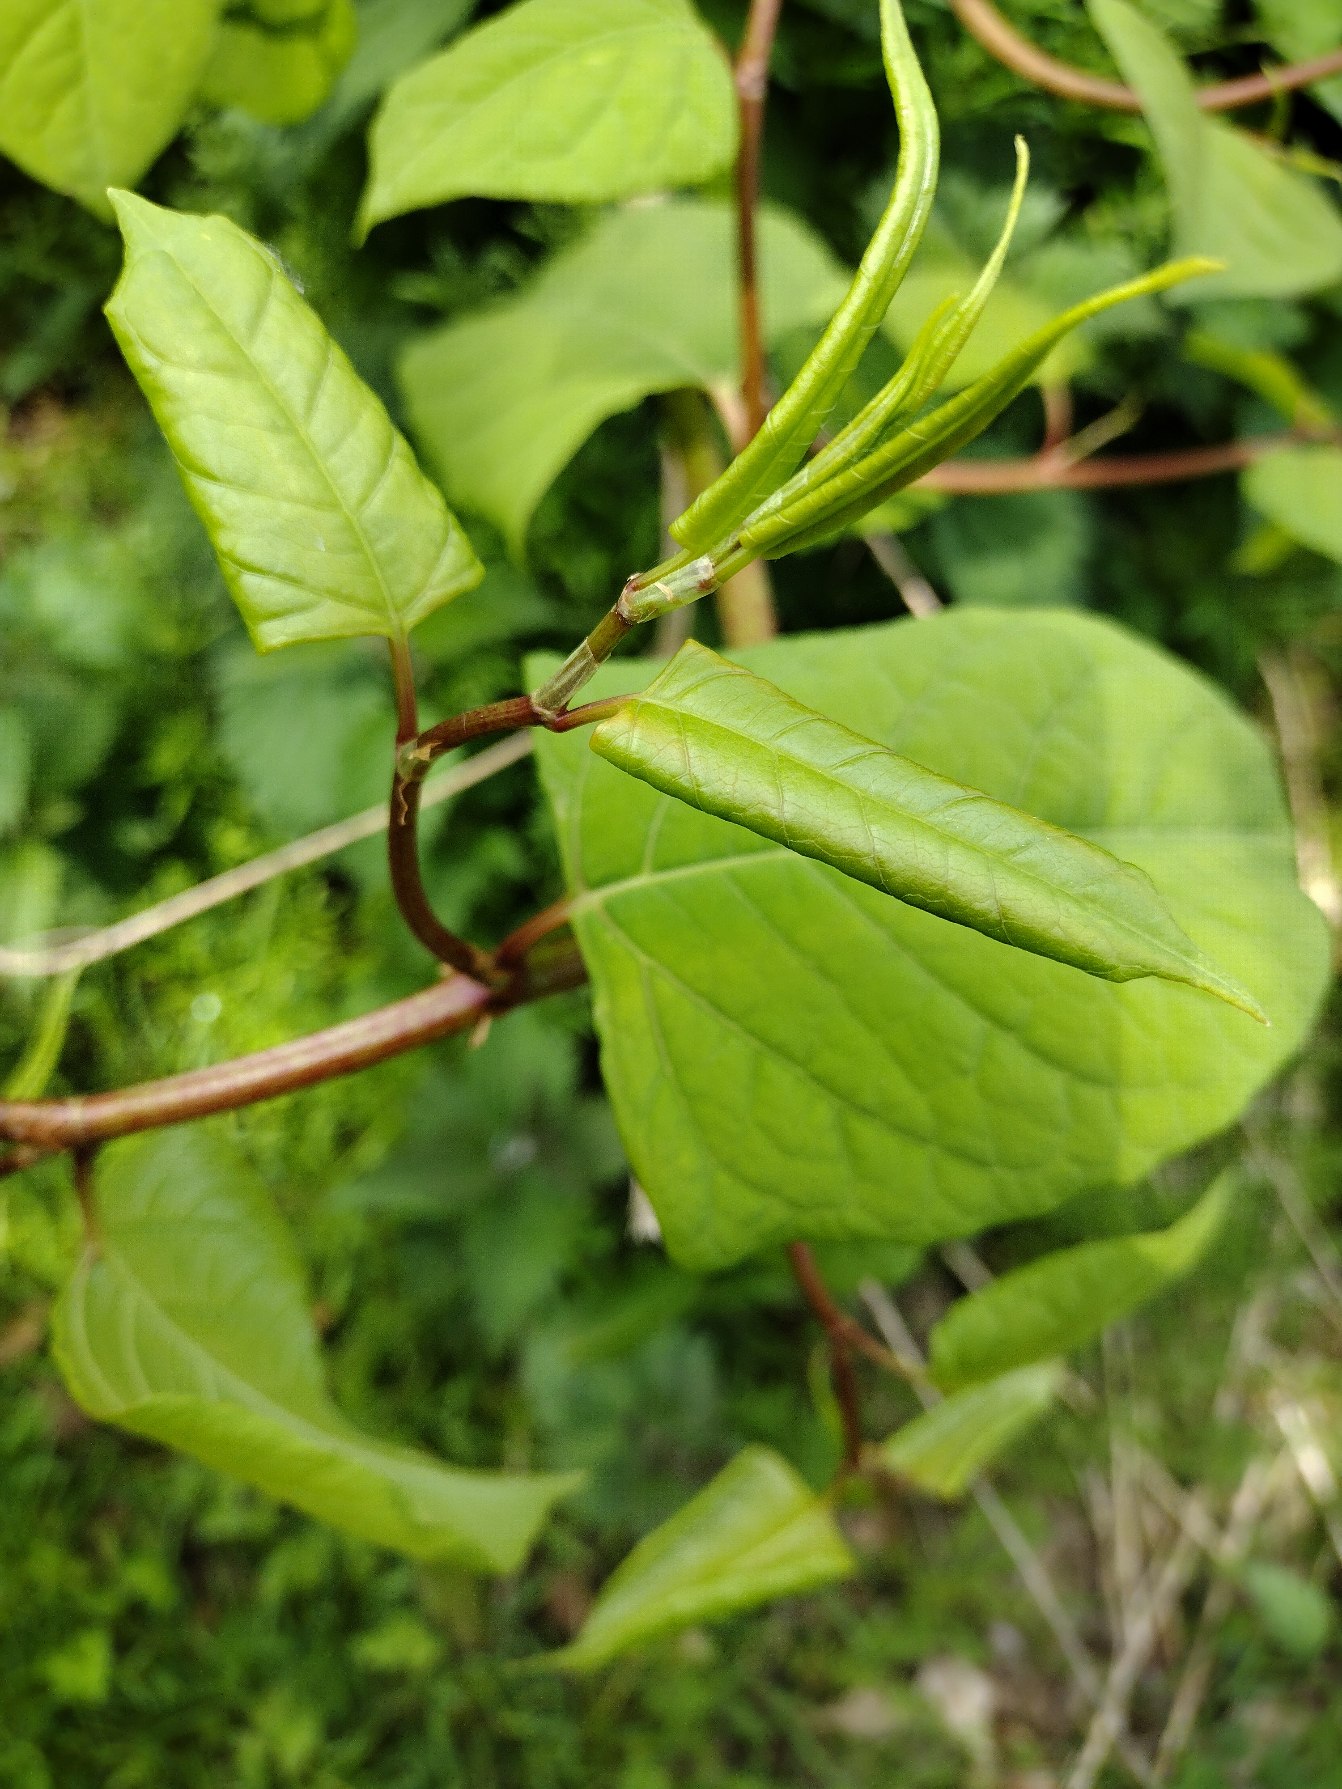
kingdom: Plantae
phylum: Tracheophyta
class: Magnoliopsida
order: Caryophyllales
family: Polygonaceae
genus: Reynoutria
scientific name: Reynoutria japonica
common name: Japan-pileurt
